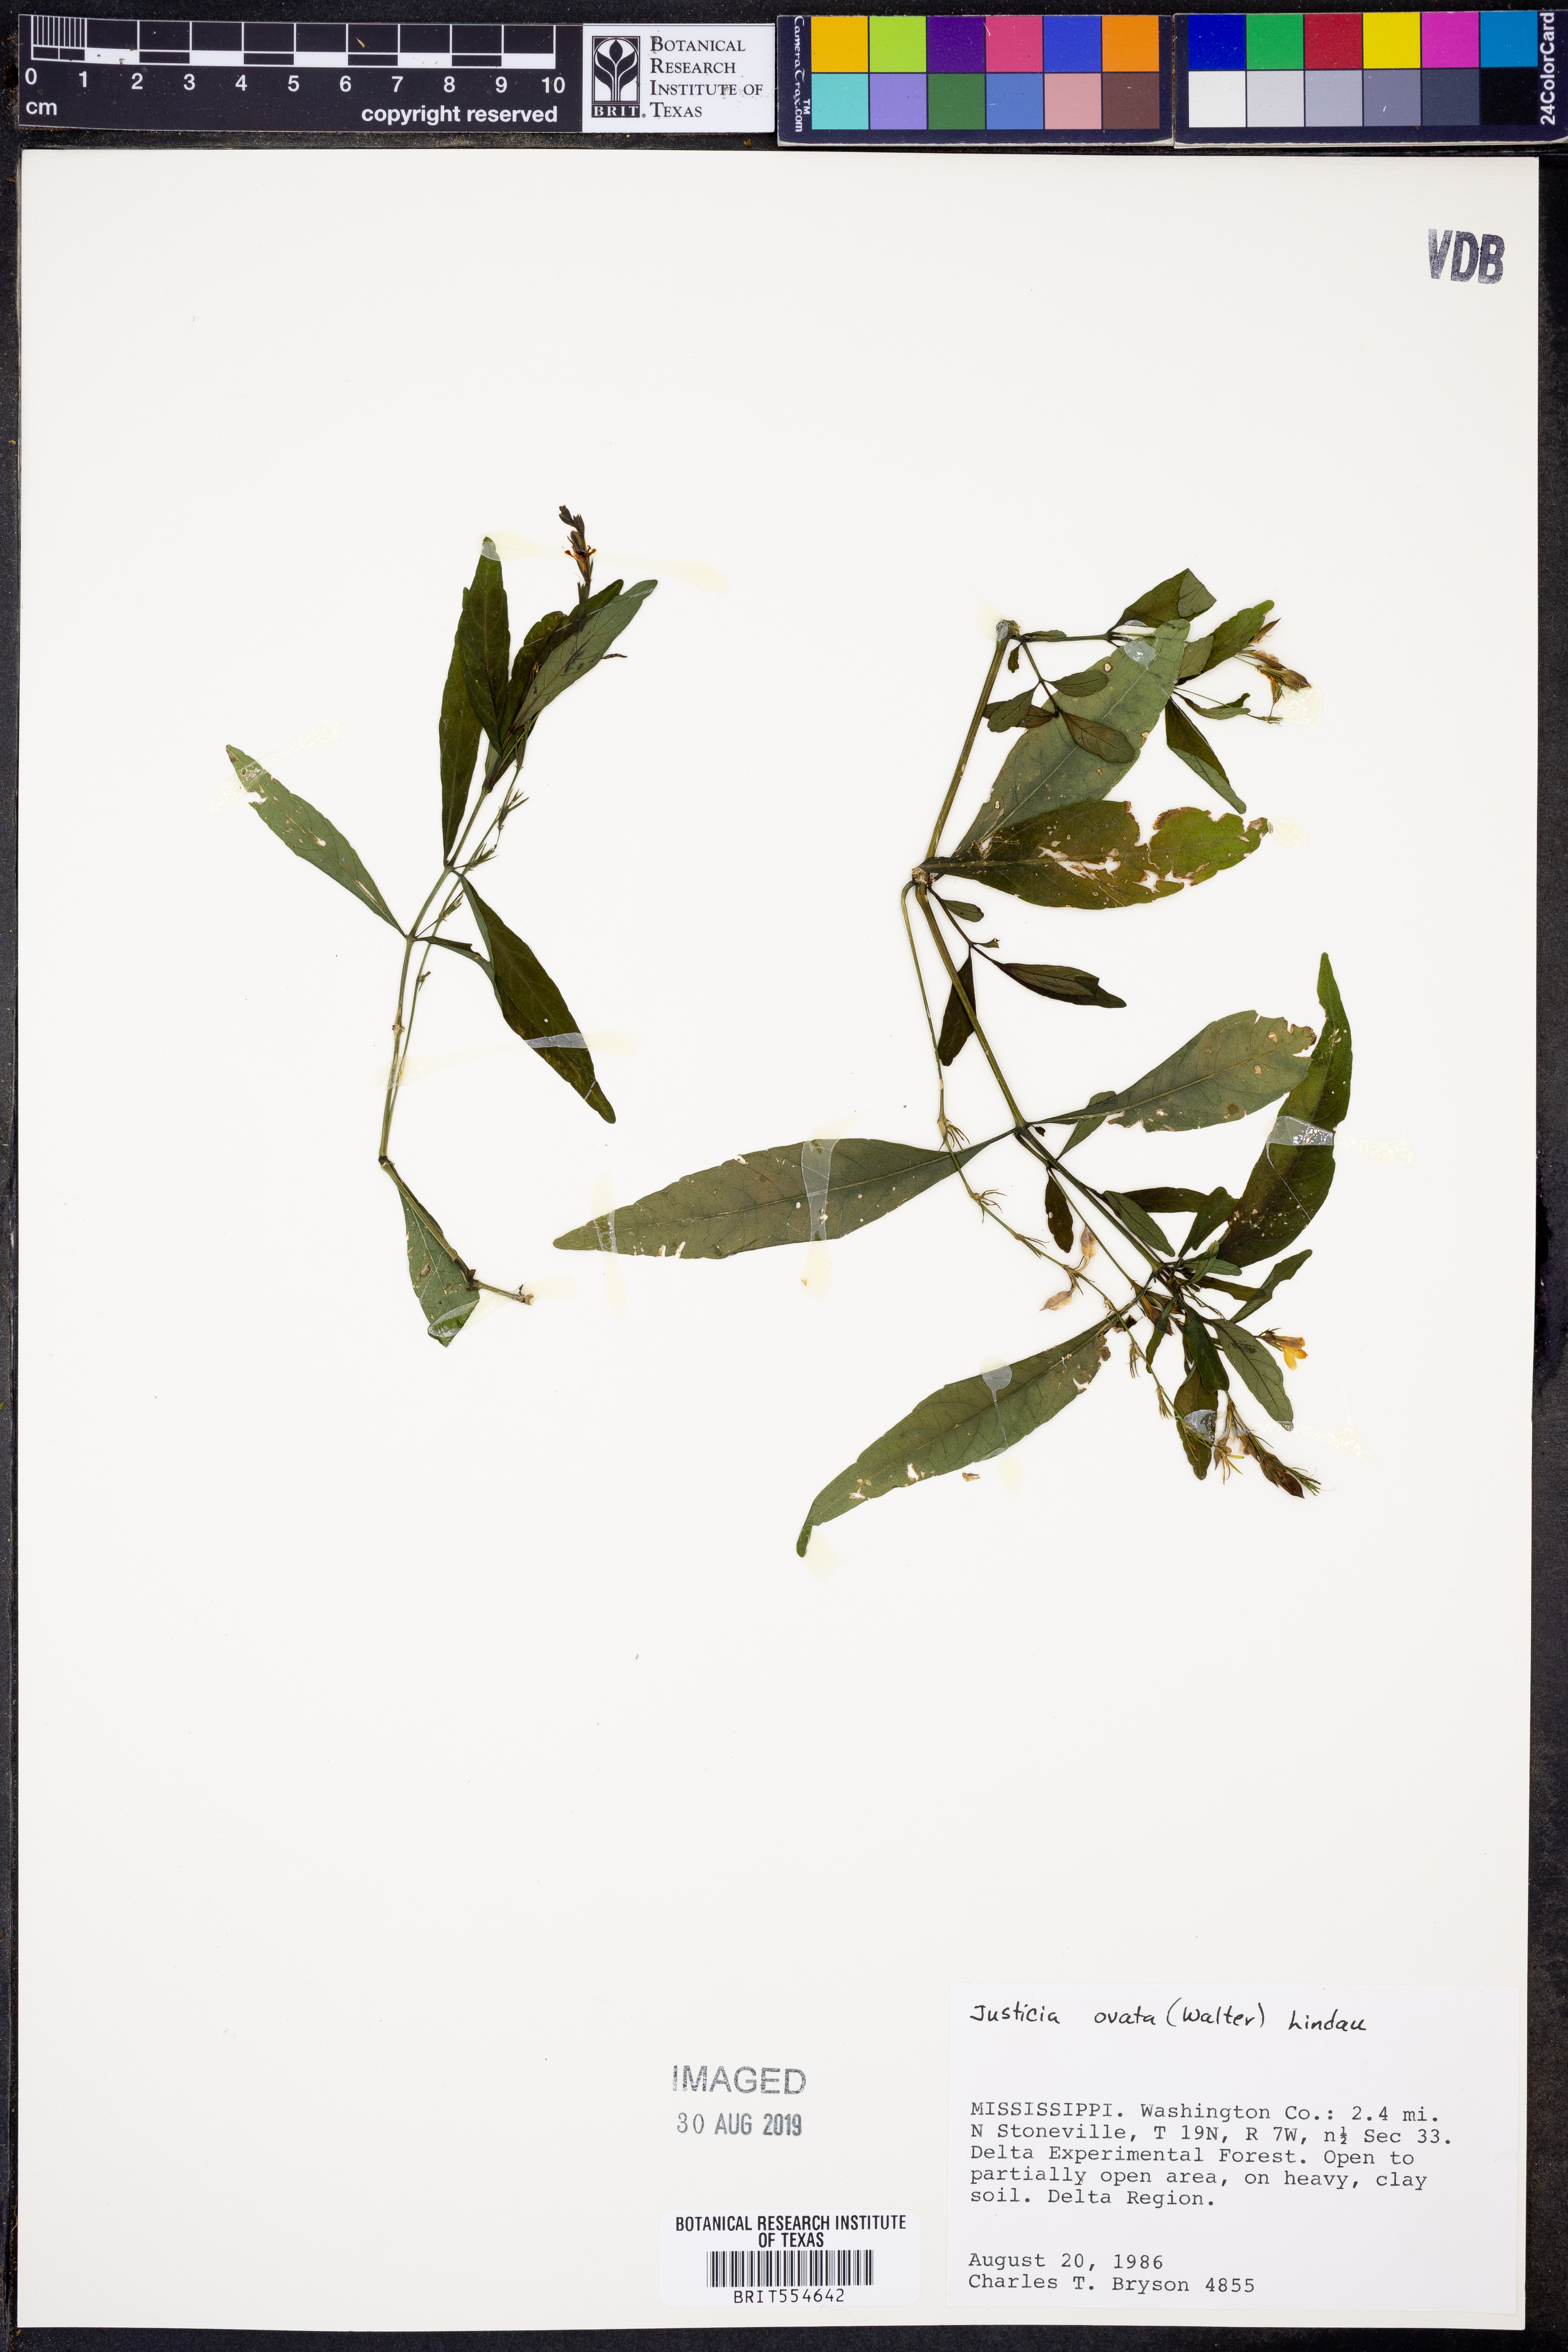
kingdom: Plantae
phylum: Tracheophyta
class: Magnoliopsida
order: Lamiales
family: Acanthaceae
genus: Dianthera
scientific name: Dianthera ovata
